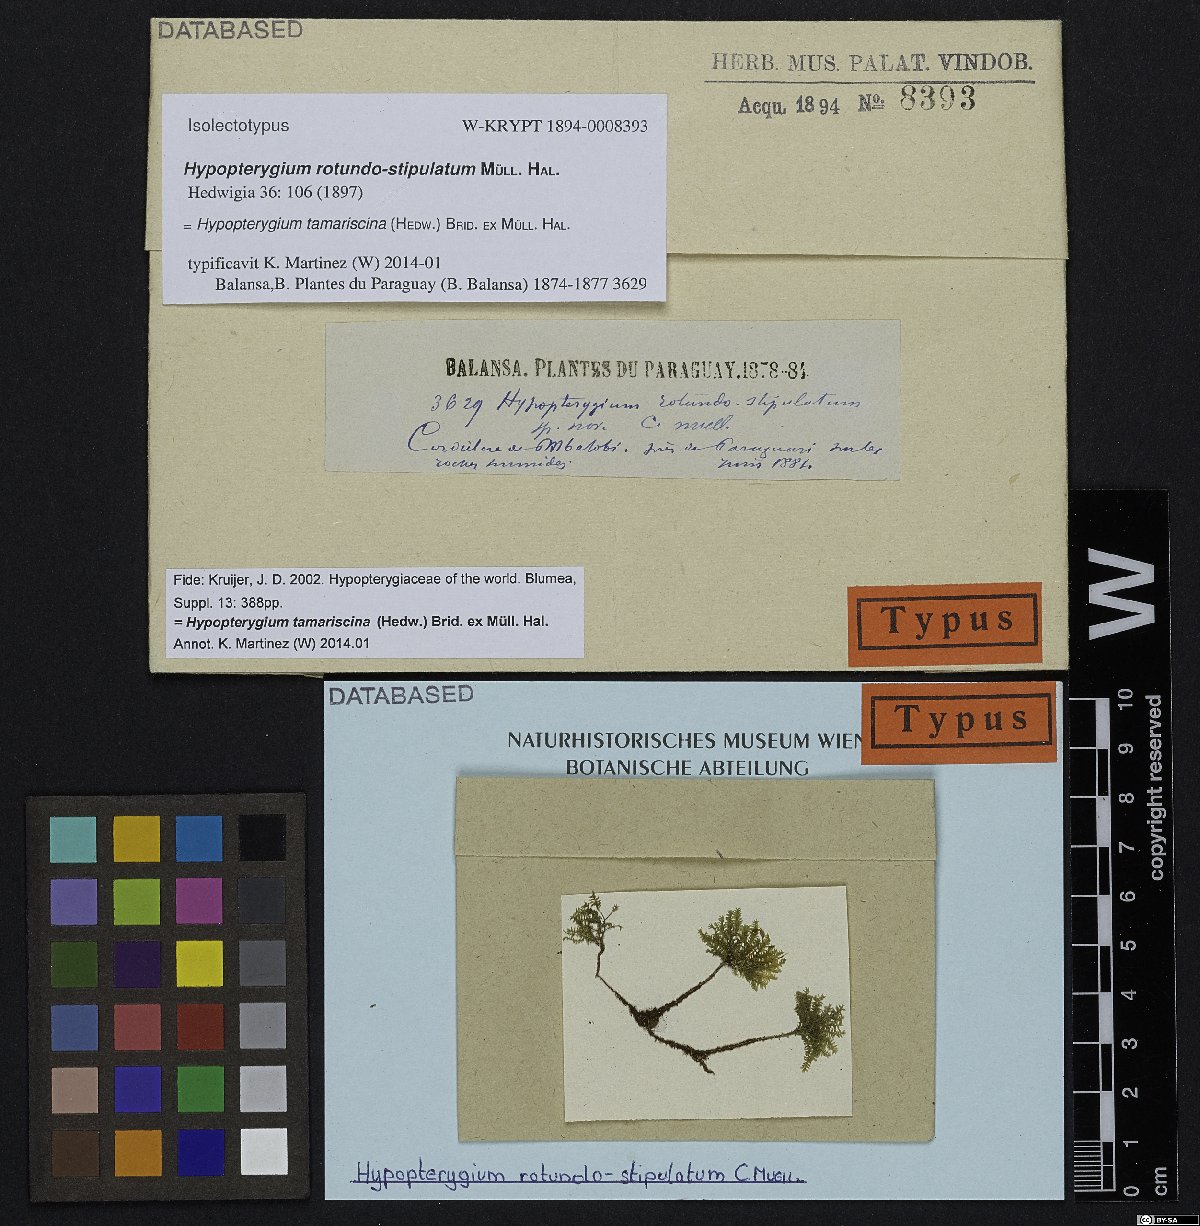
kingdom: Plantae
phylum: Bryophyta
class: Bryopsida
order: Hypopterygiales
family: Hypopterygiaceae
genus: Hypopterygium
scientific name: Hypopterygium tamarisci
